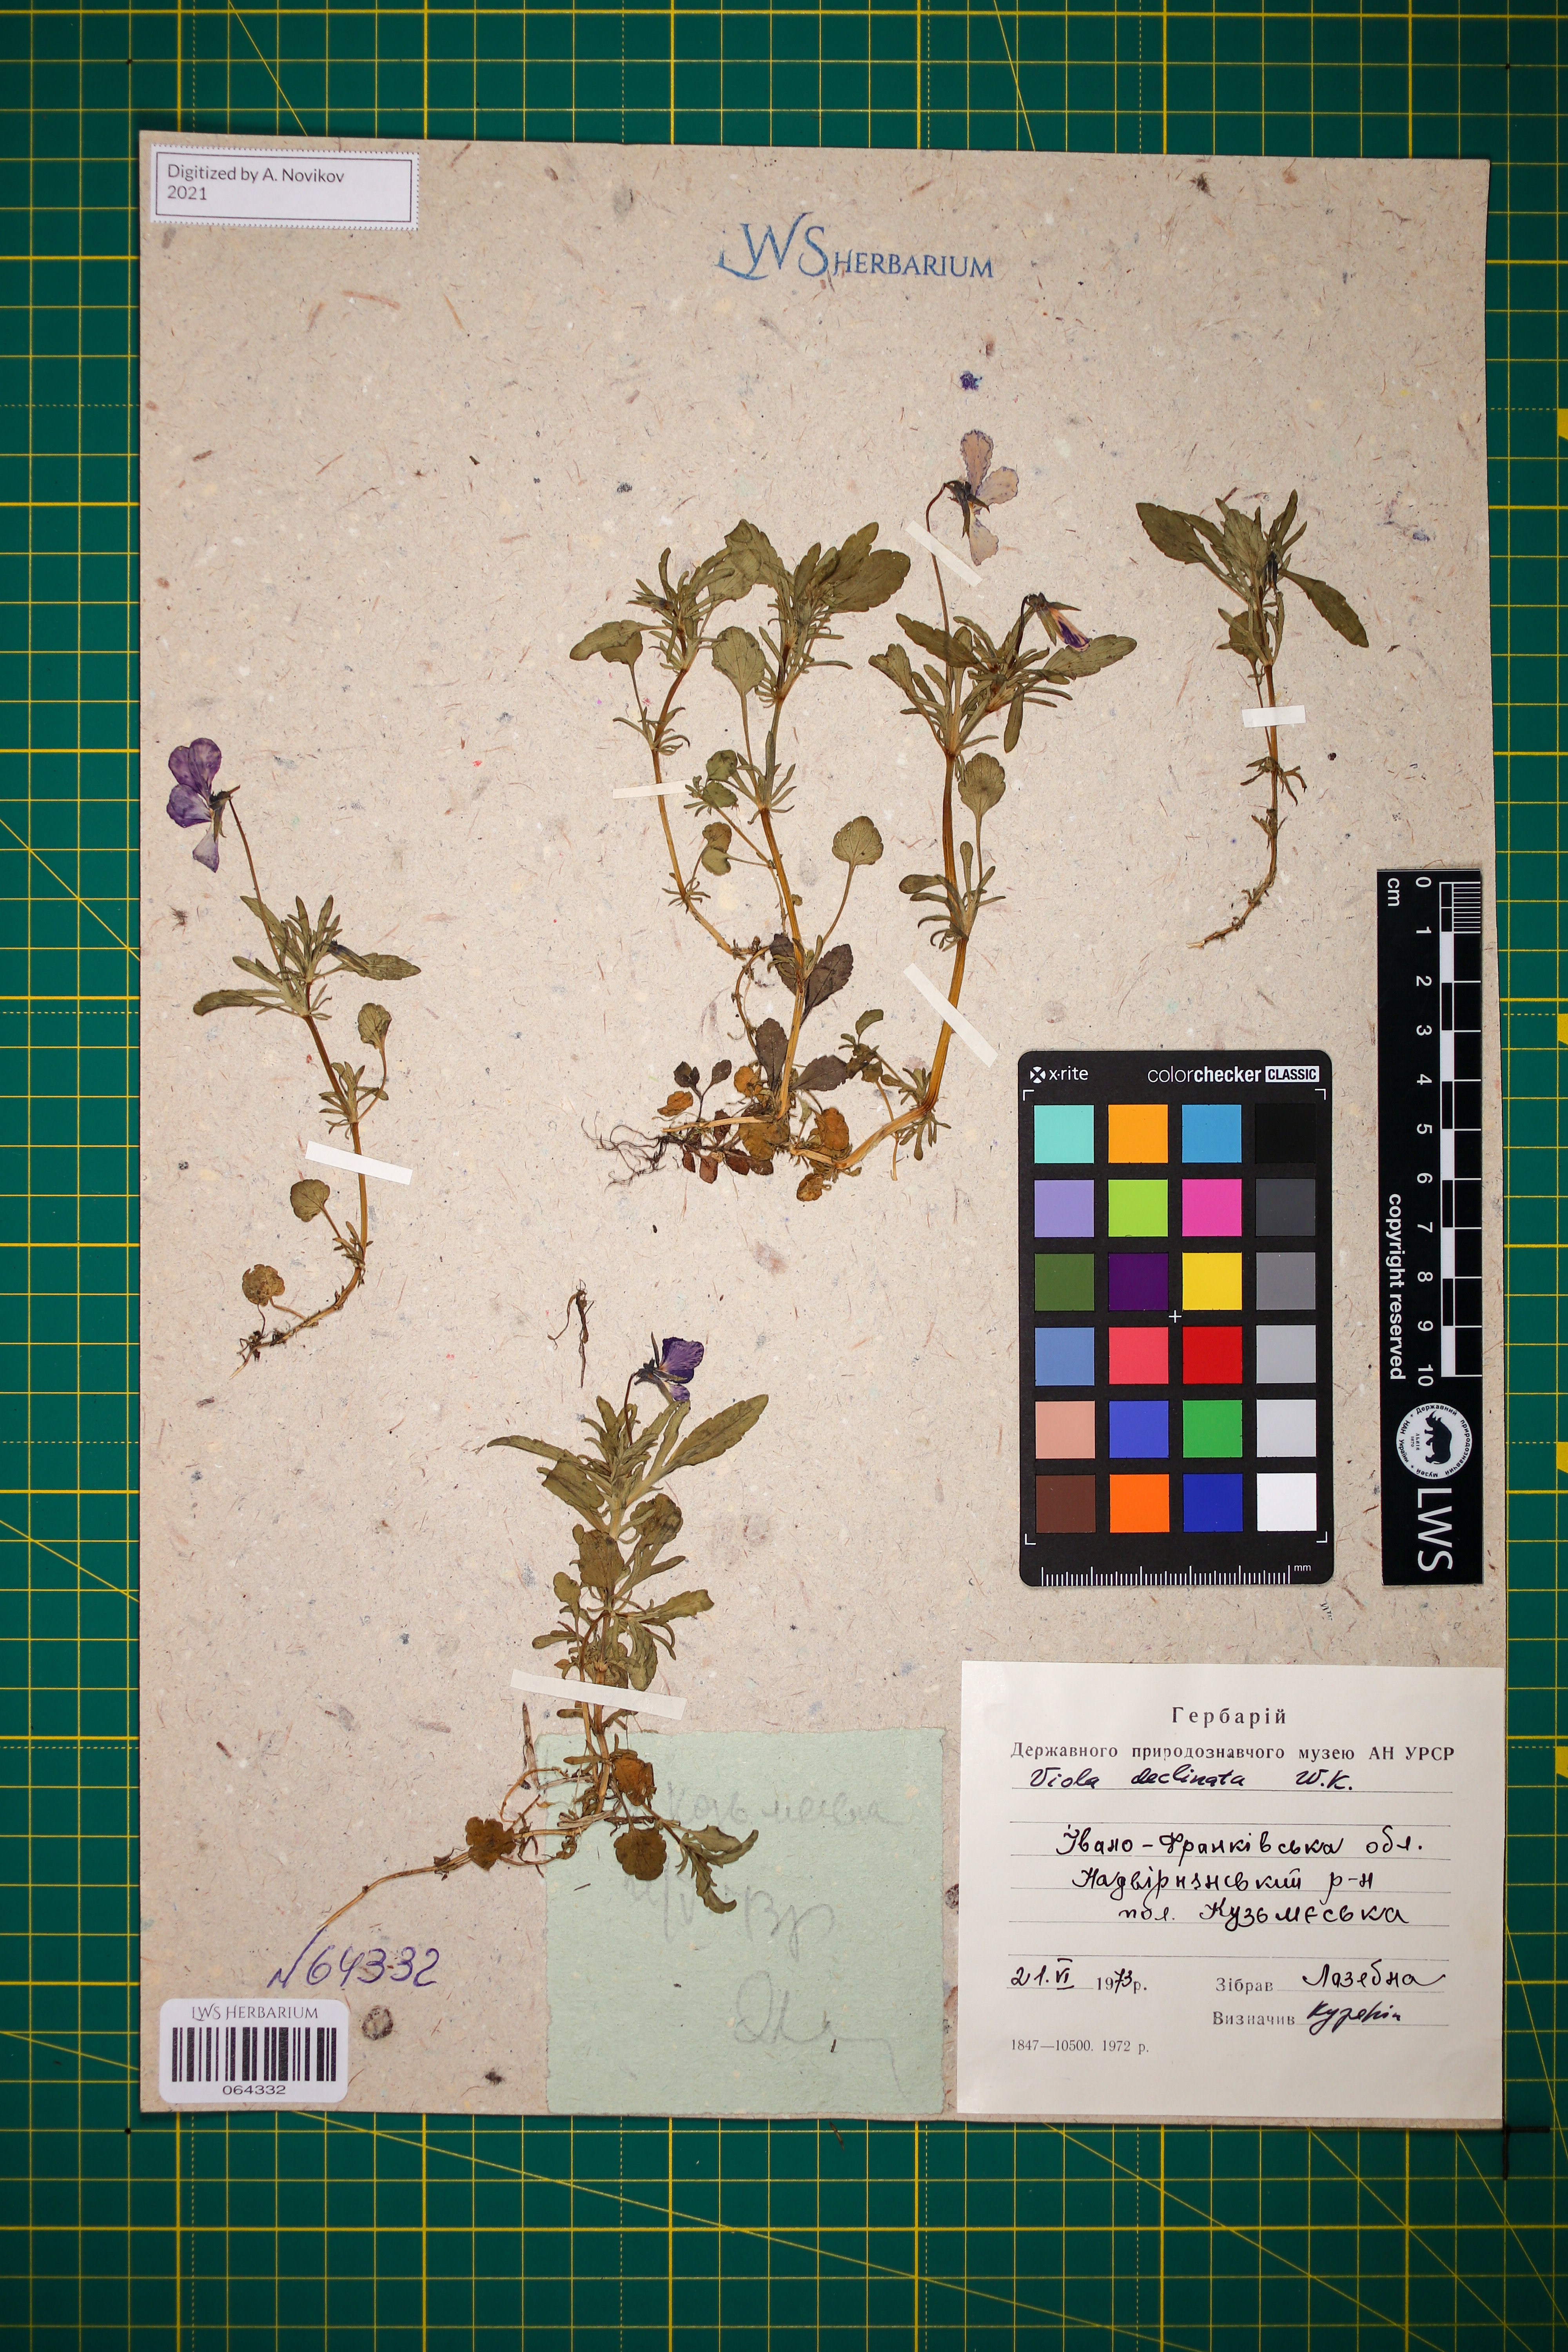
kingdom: Plantae
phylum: Tracheophyta
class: Magnoliopsida
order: Malpighiales
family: Violaceae
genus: Viola
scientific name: Viola declinata
